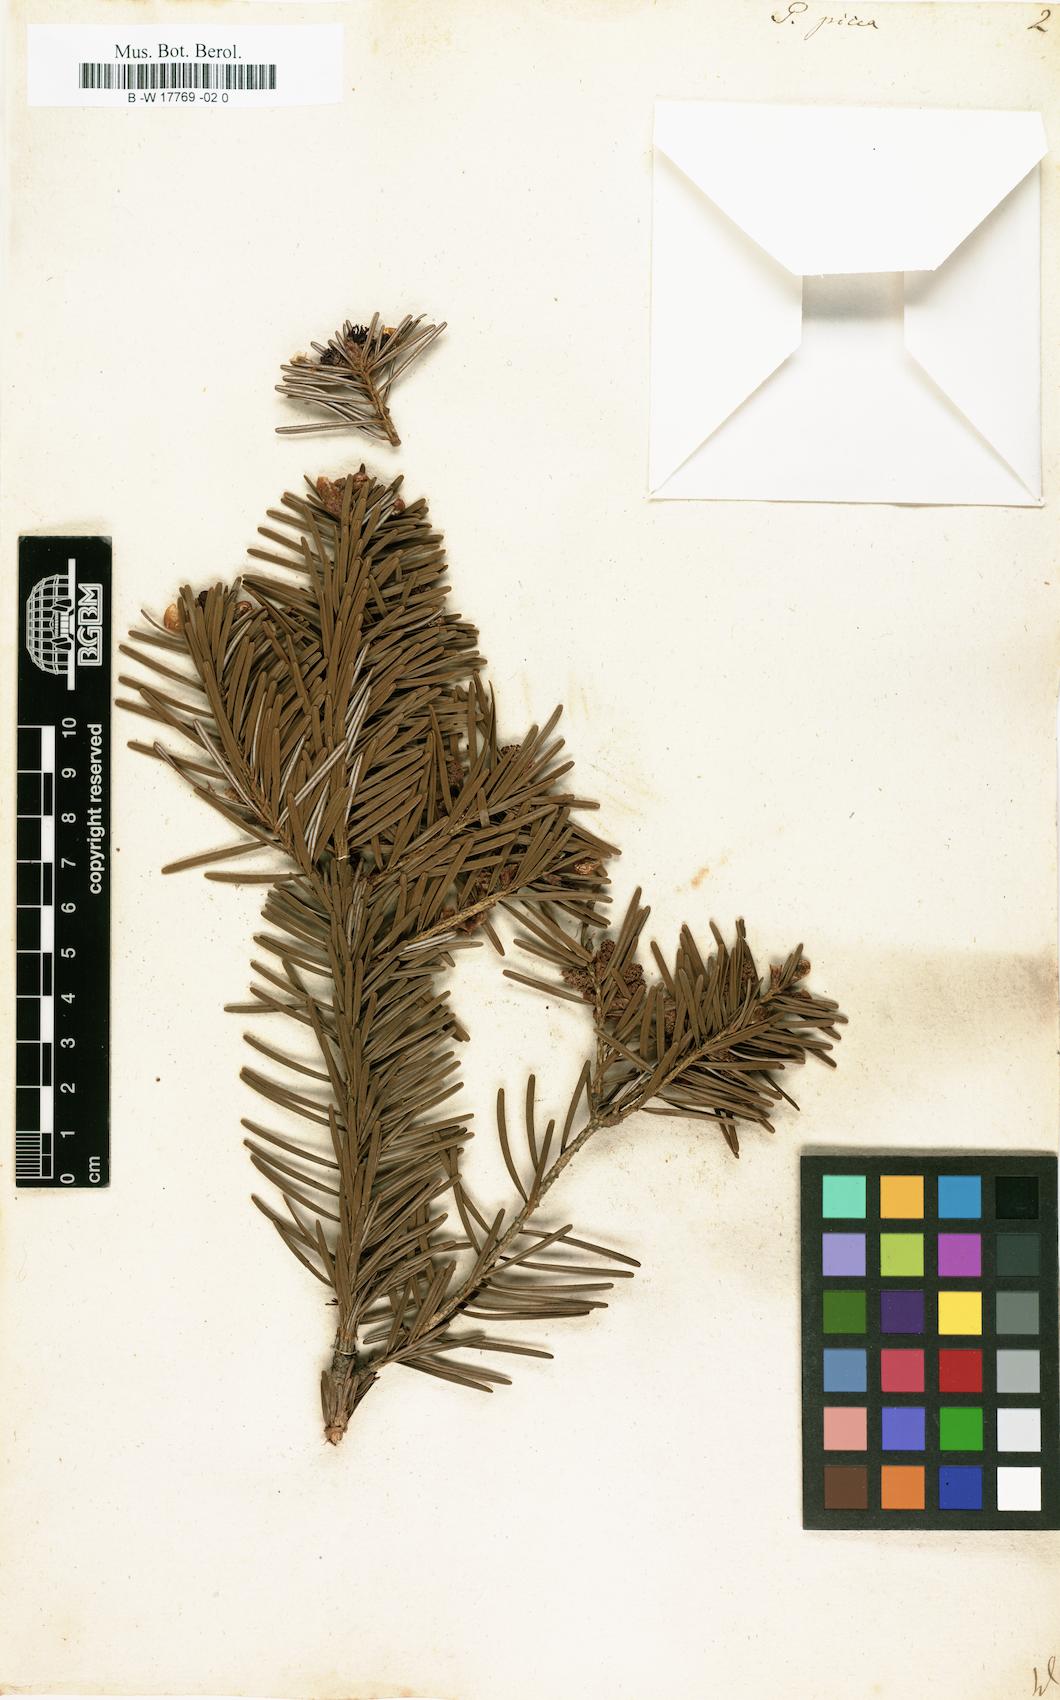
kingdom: Plantae
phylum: Tracheophyta
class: Pinopsida
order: Pinales
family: Pinaceae
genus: Pinus
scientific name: Pinus picea
